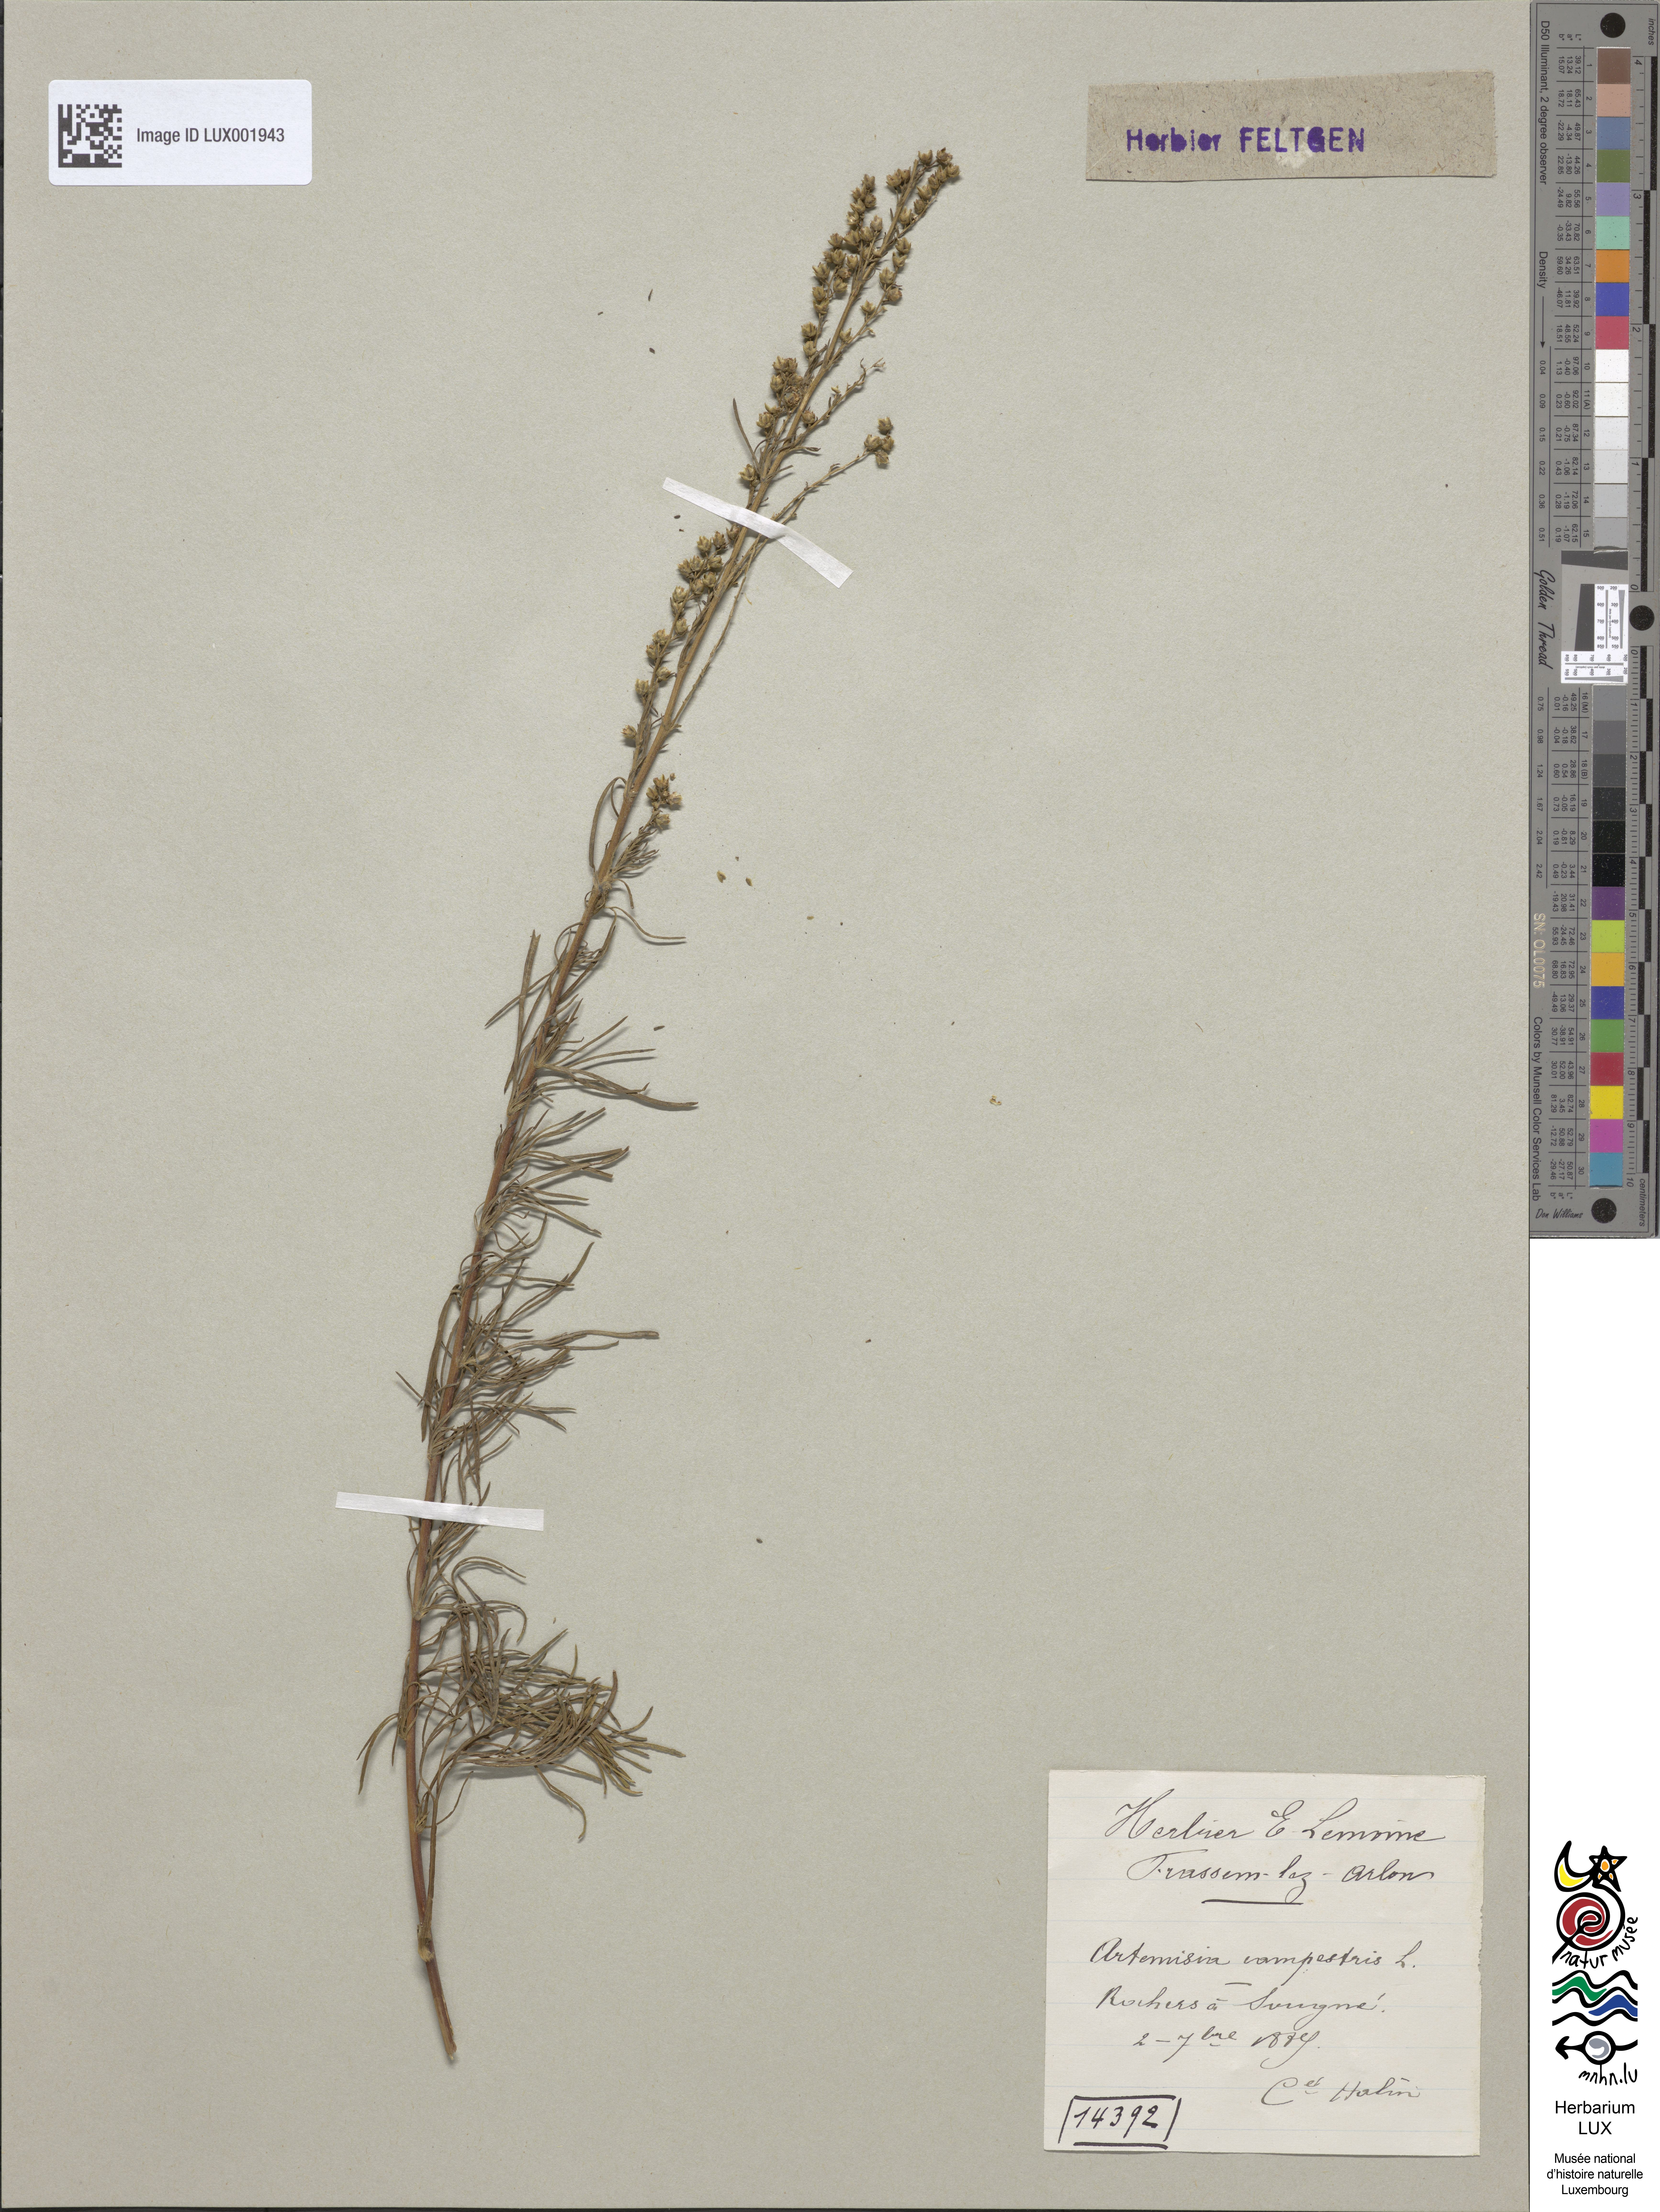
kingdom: Plantae
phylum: Tracheophyta
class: Magnoliopsida
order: Asterales
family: Asteraceae
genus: Artemisia
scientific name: Artemisia campestris
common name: Field wormwood
